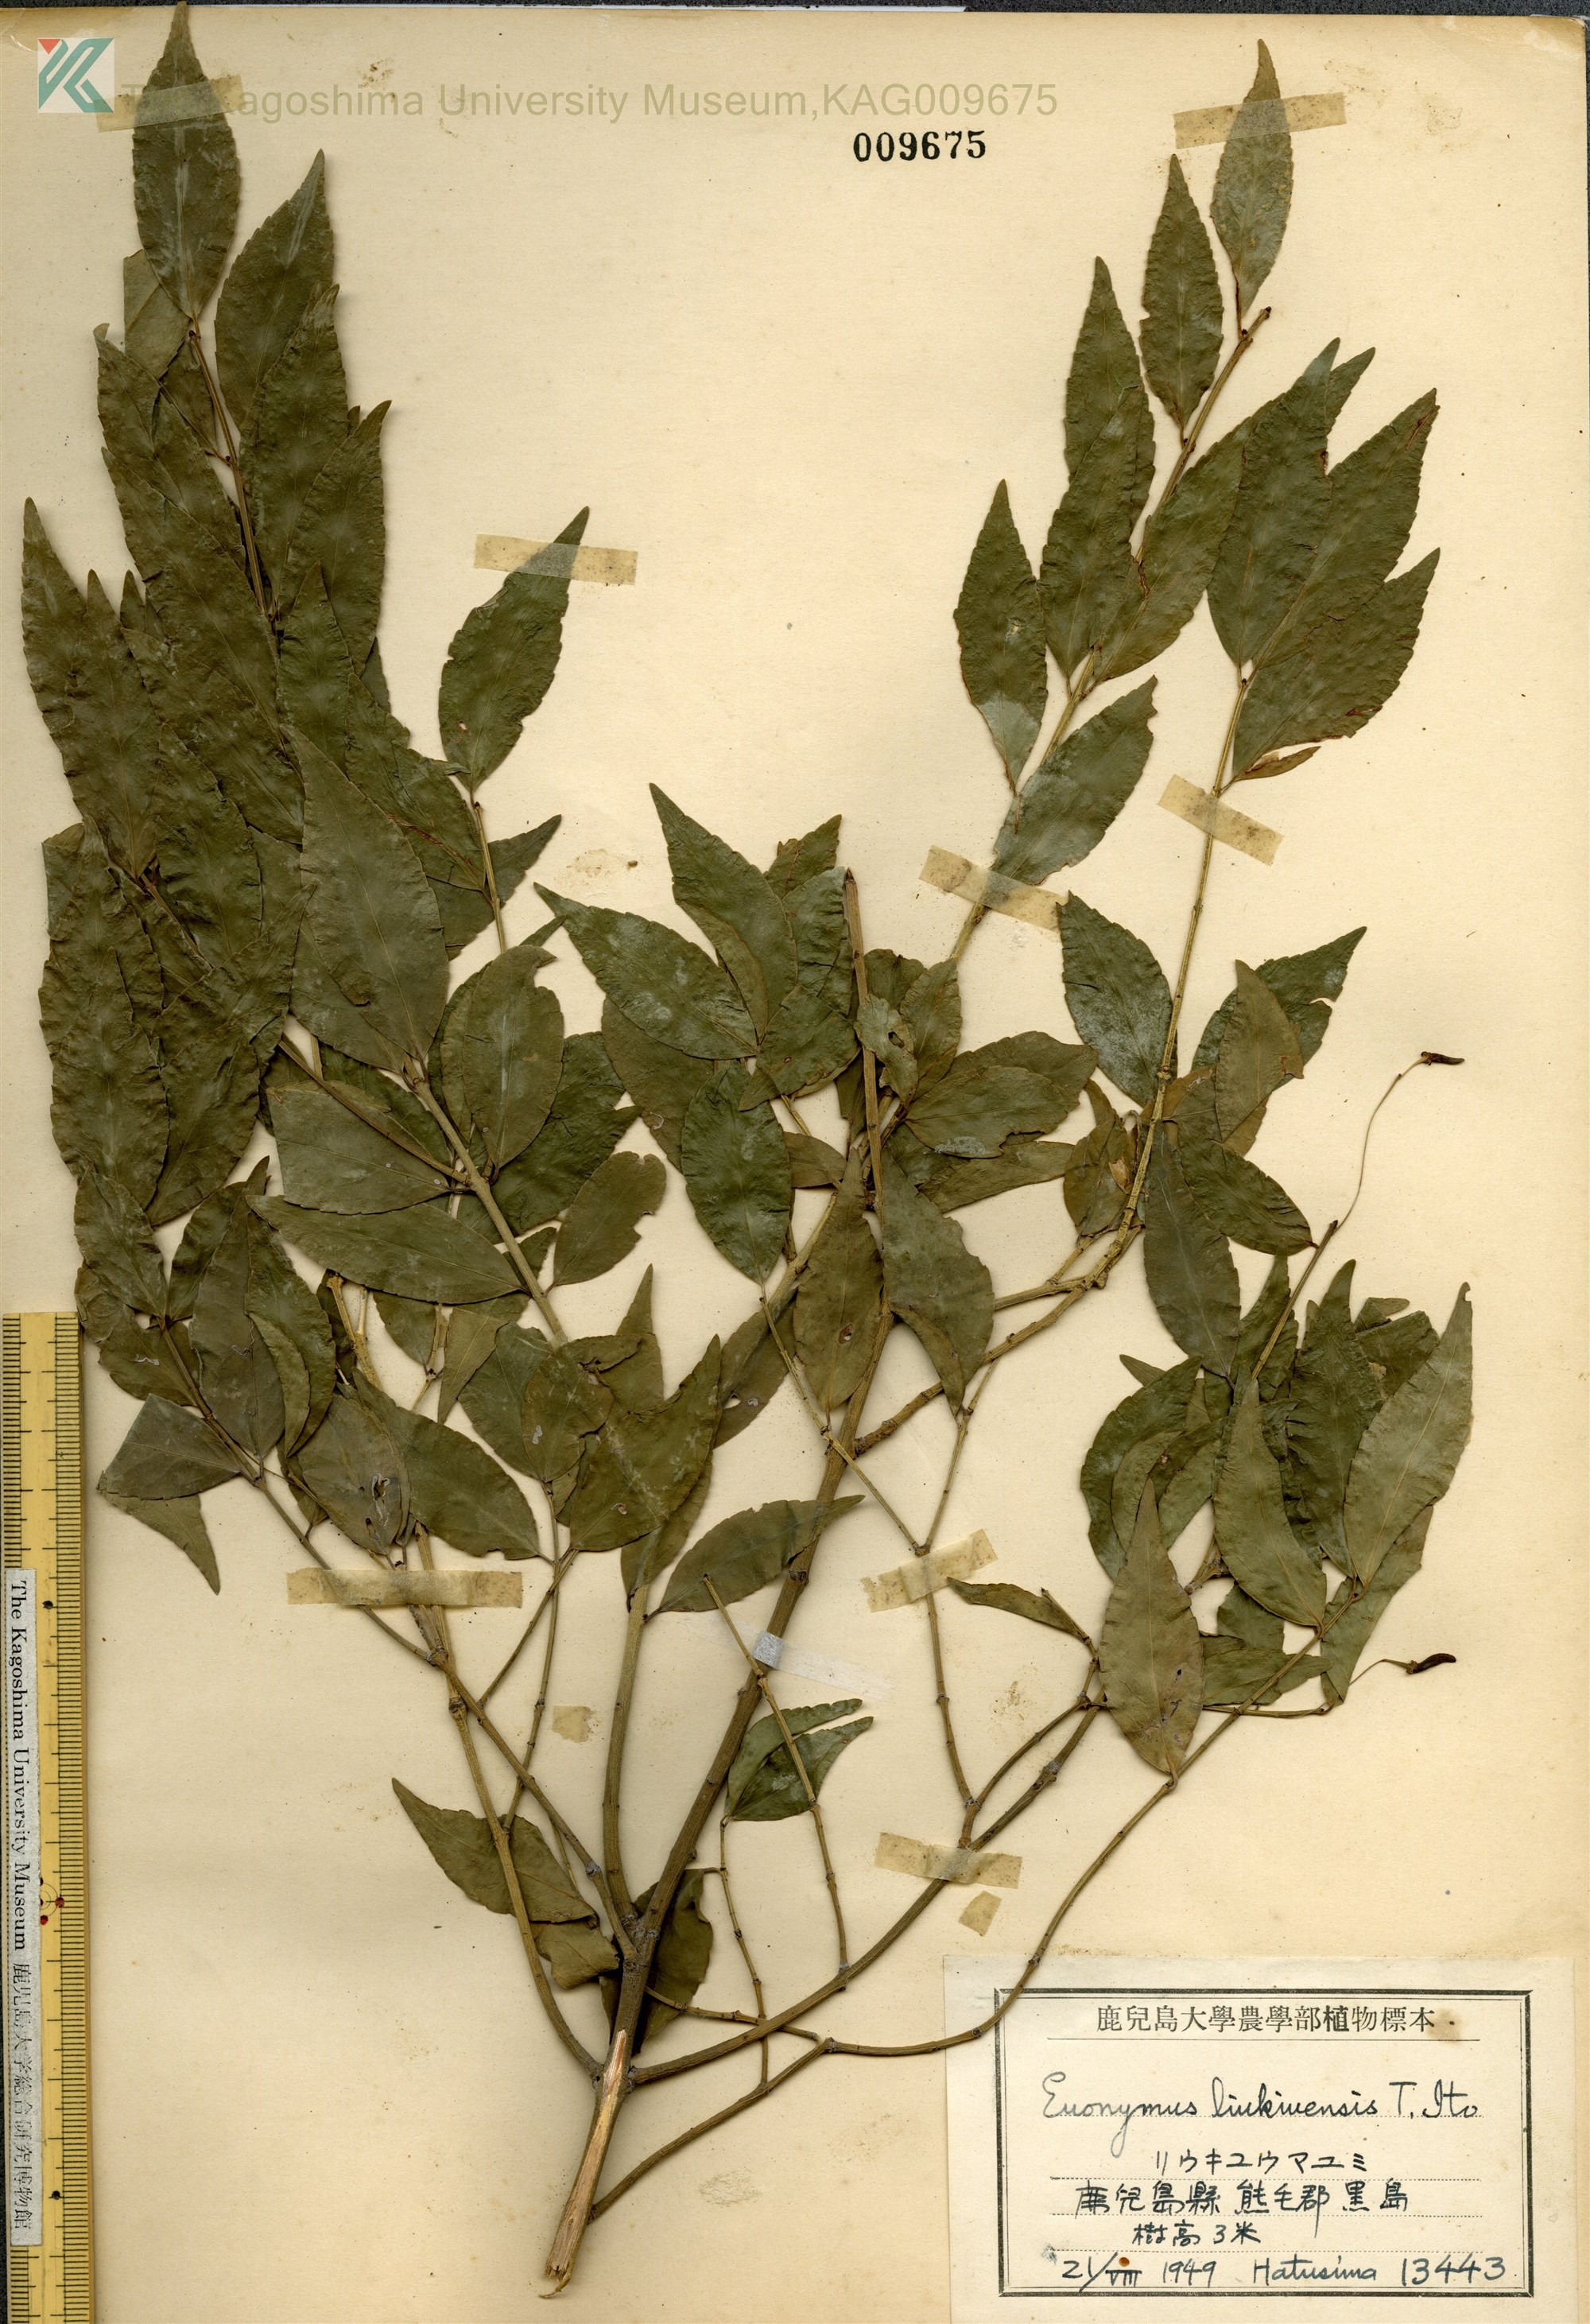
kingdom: Plantae
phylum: Tracheophyta
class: Magnoliopsida
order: Celastrales
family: Celastraceae
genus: Euonymus
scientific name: Euonymus lutchuensis
